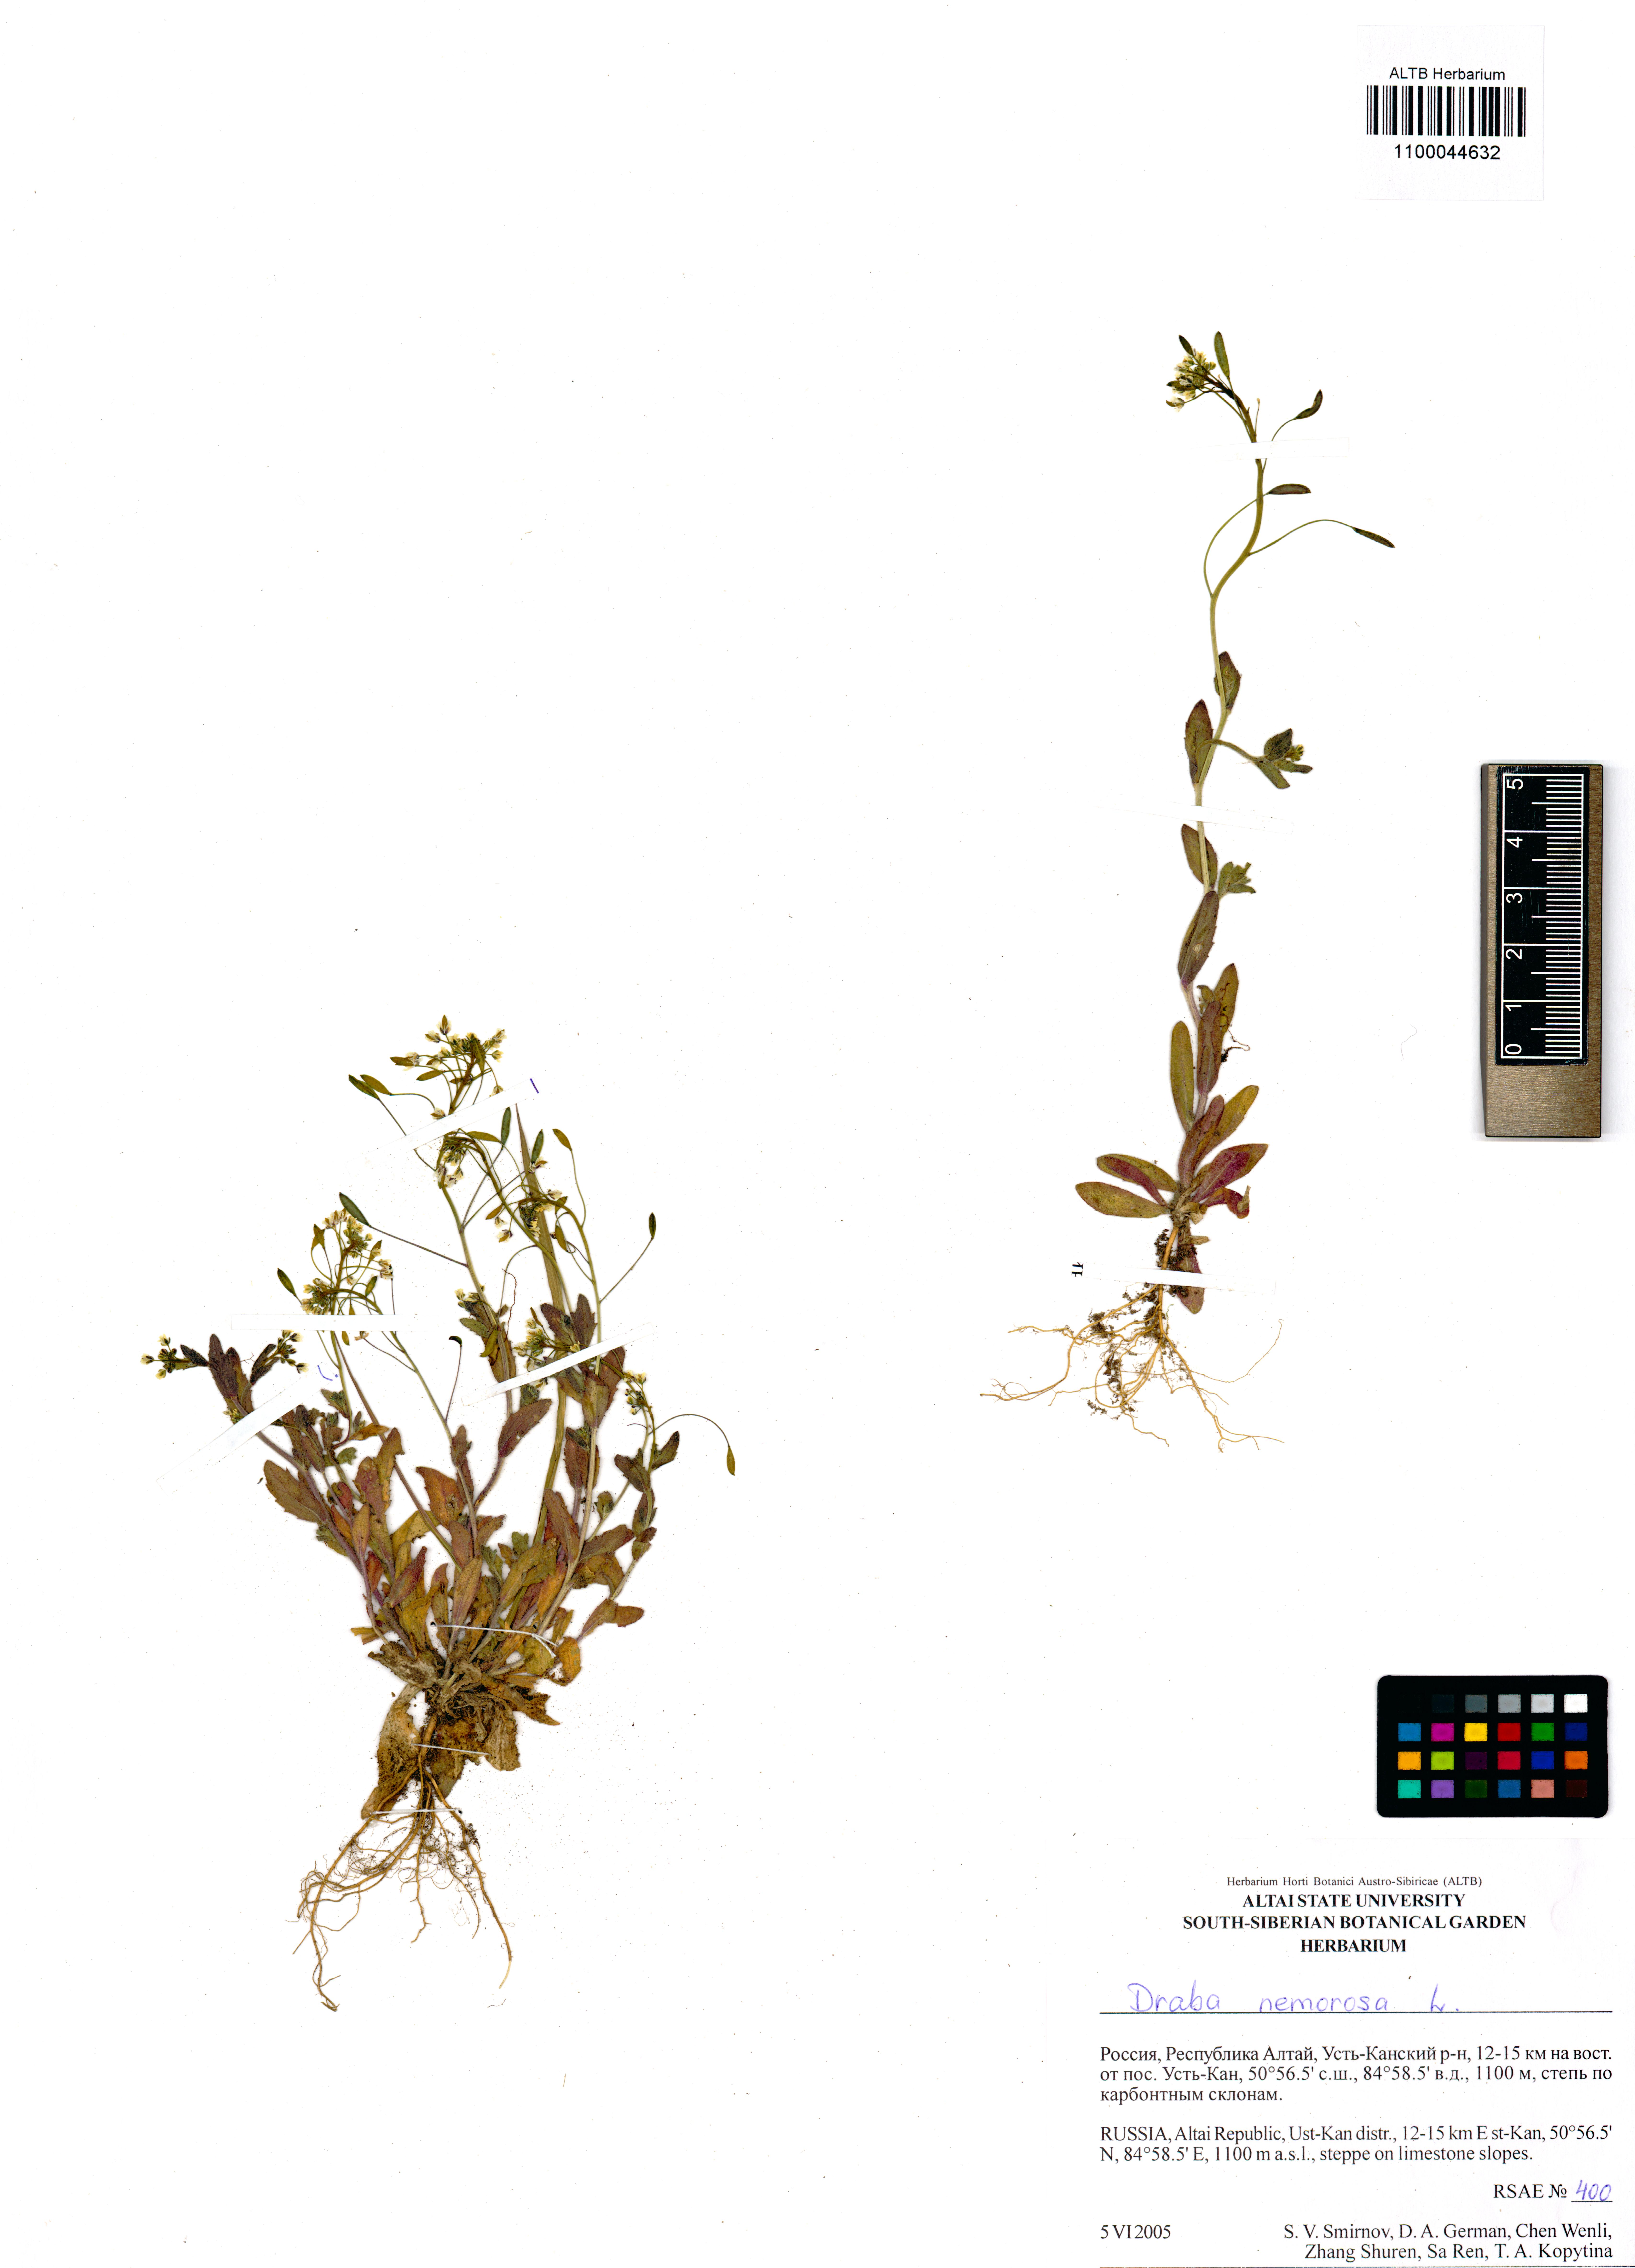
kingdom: Plantae
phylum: Tracheophyta
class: Magnoliopsida
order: Brassicales
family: Brassicaceae
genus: Draba
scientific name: Draba nemorosa
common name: Wood whitlow-grass
